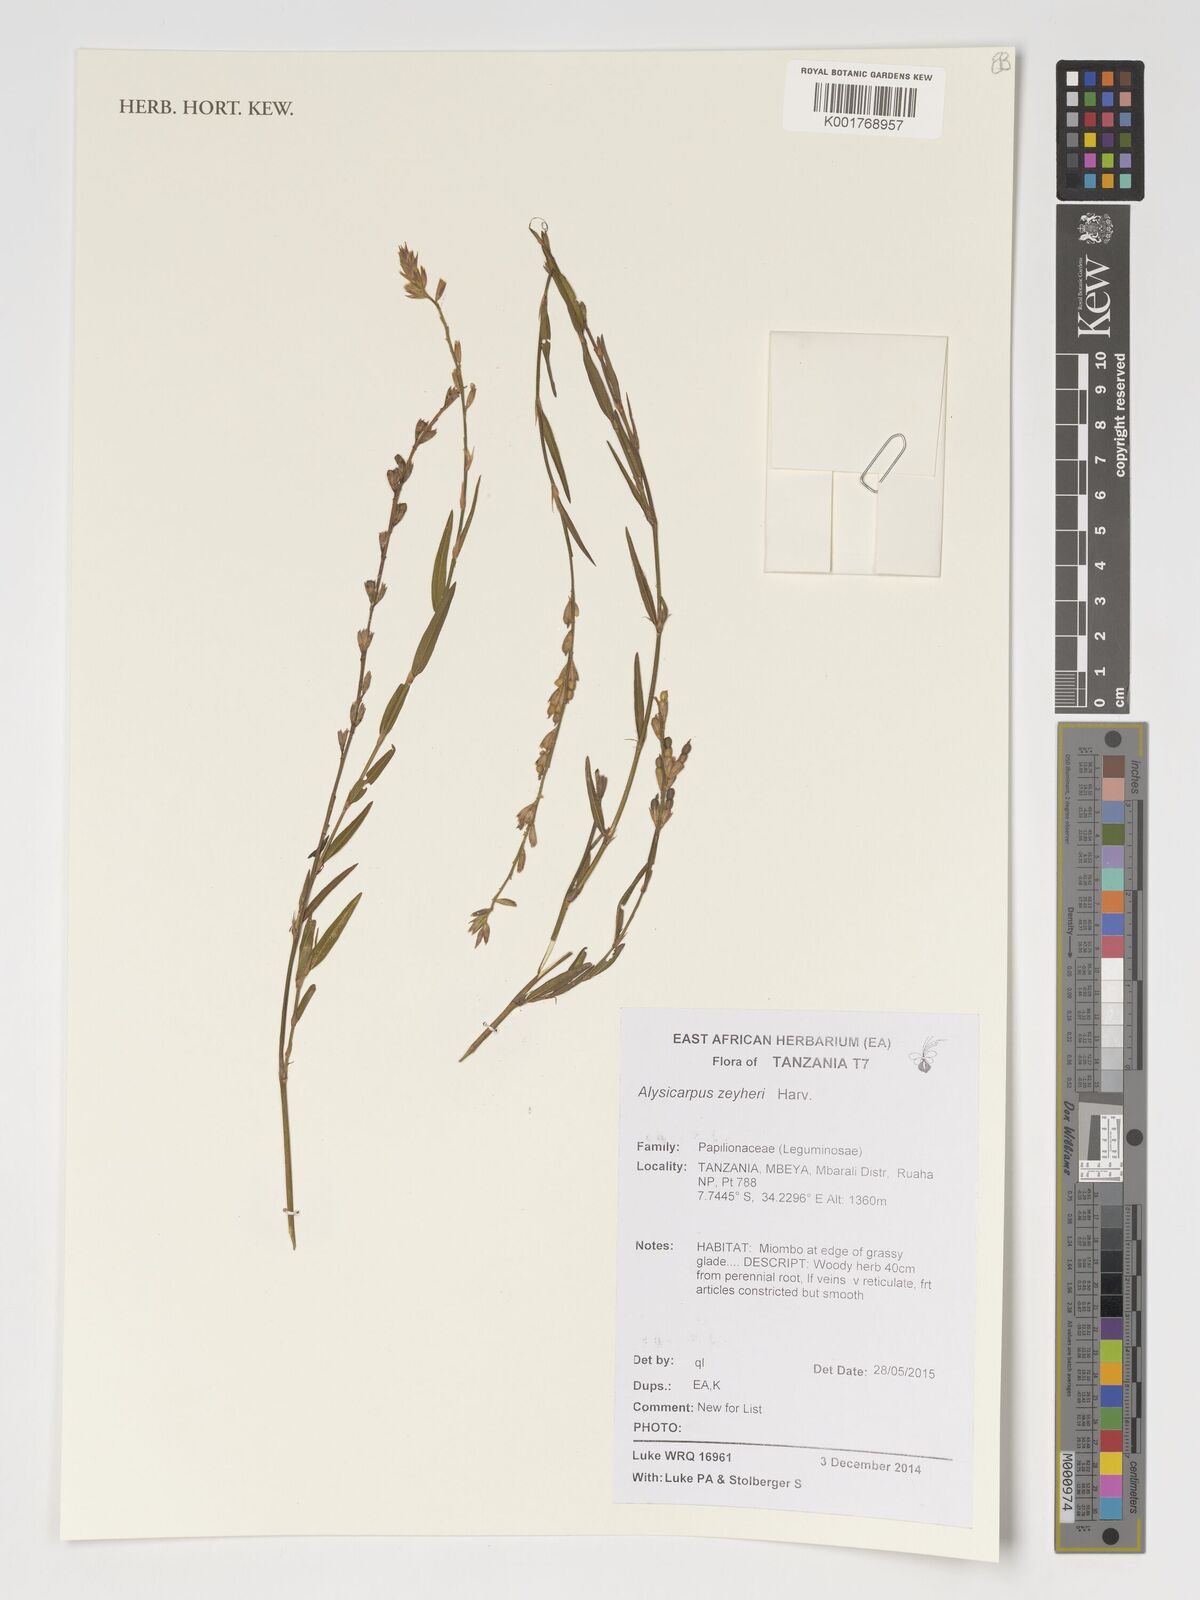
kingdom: Plantae
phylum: Tracheophyta
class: Magnoliopsida
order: Fabales
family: Fabaceae
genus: Alysicarpus
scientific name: Alysicarpus zeyheri
